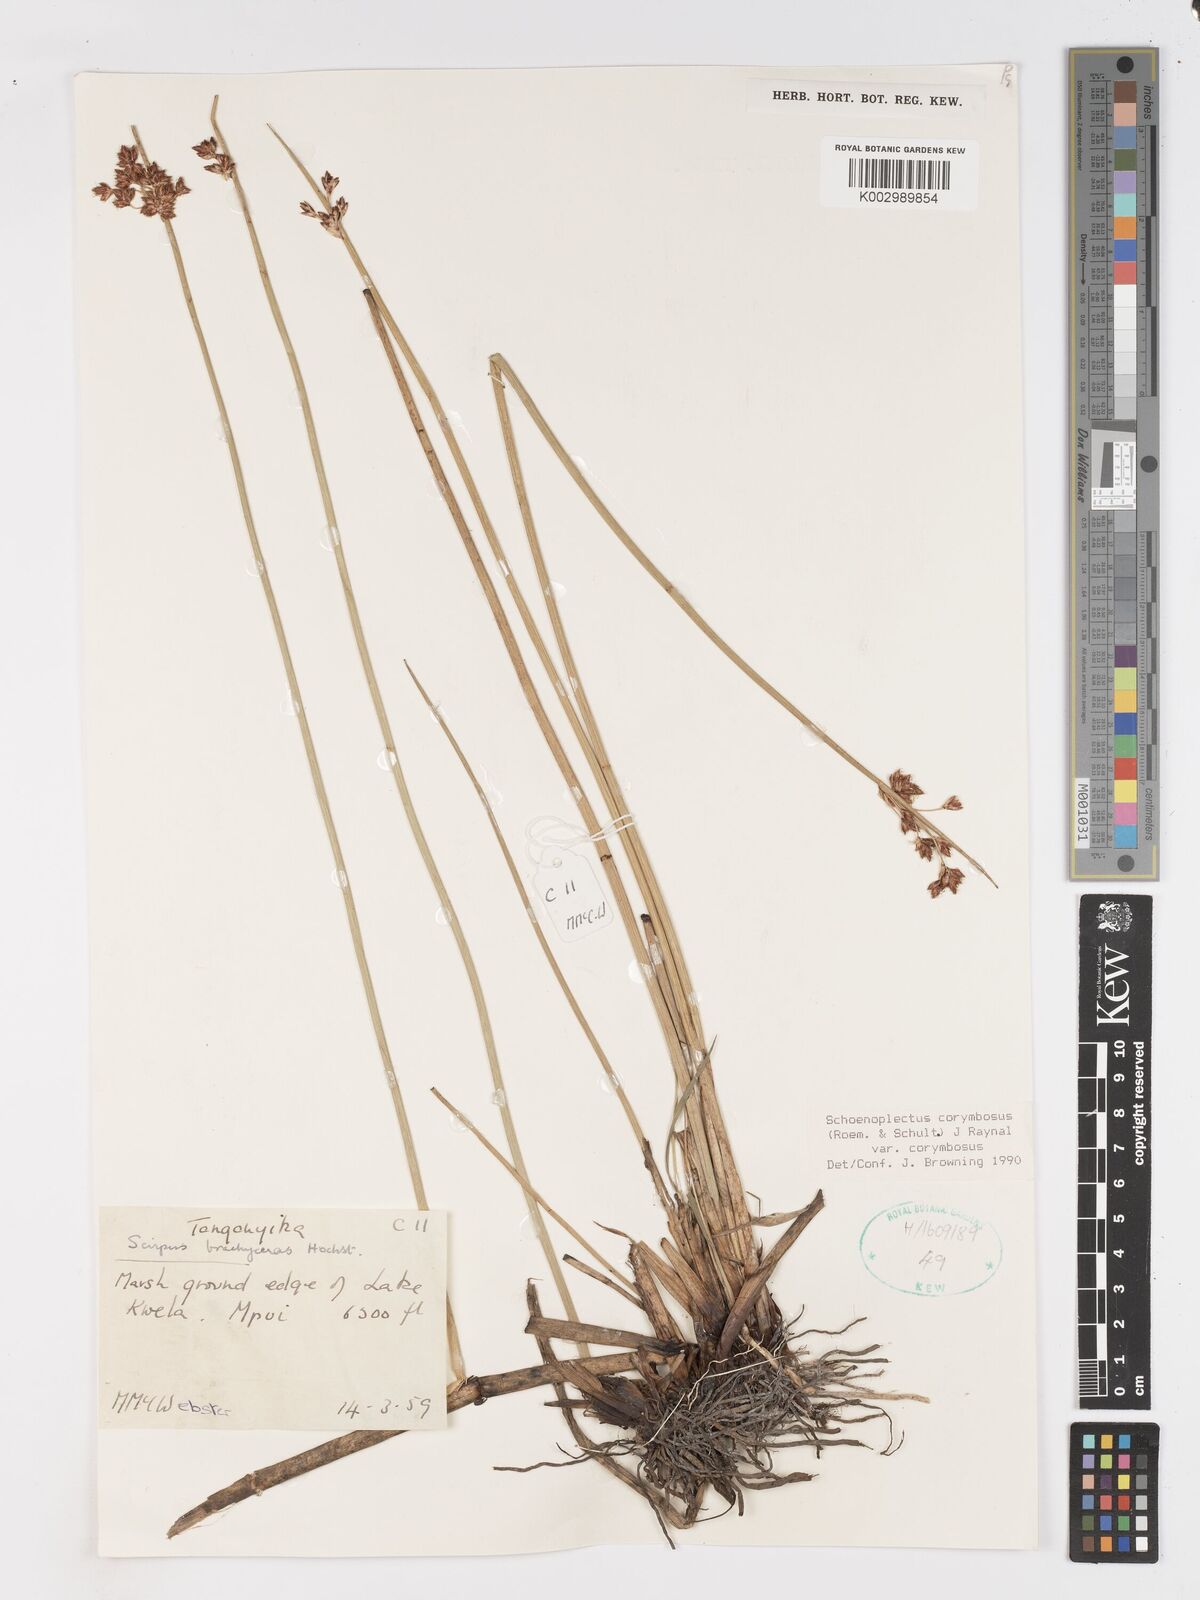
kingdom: Plantae
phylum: Tracheophyta
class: Liliopsida
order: Poales
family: Cyperaceae
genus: Schoenoplectiella
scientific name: Schoenoplectiella corymbosa
